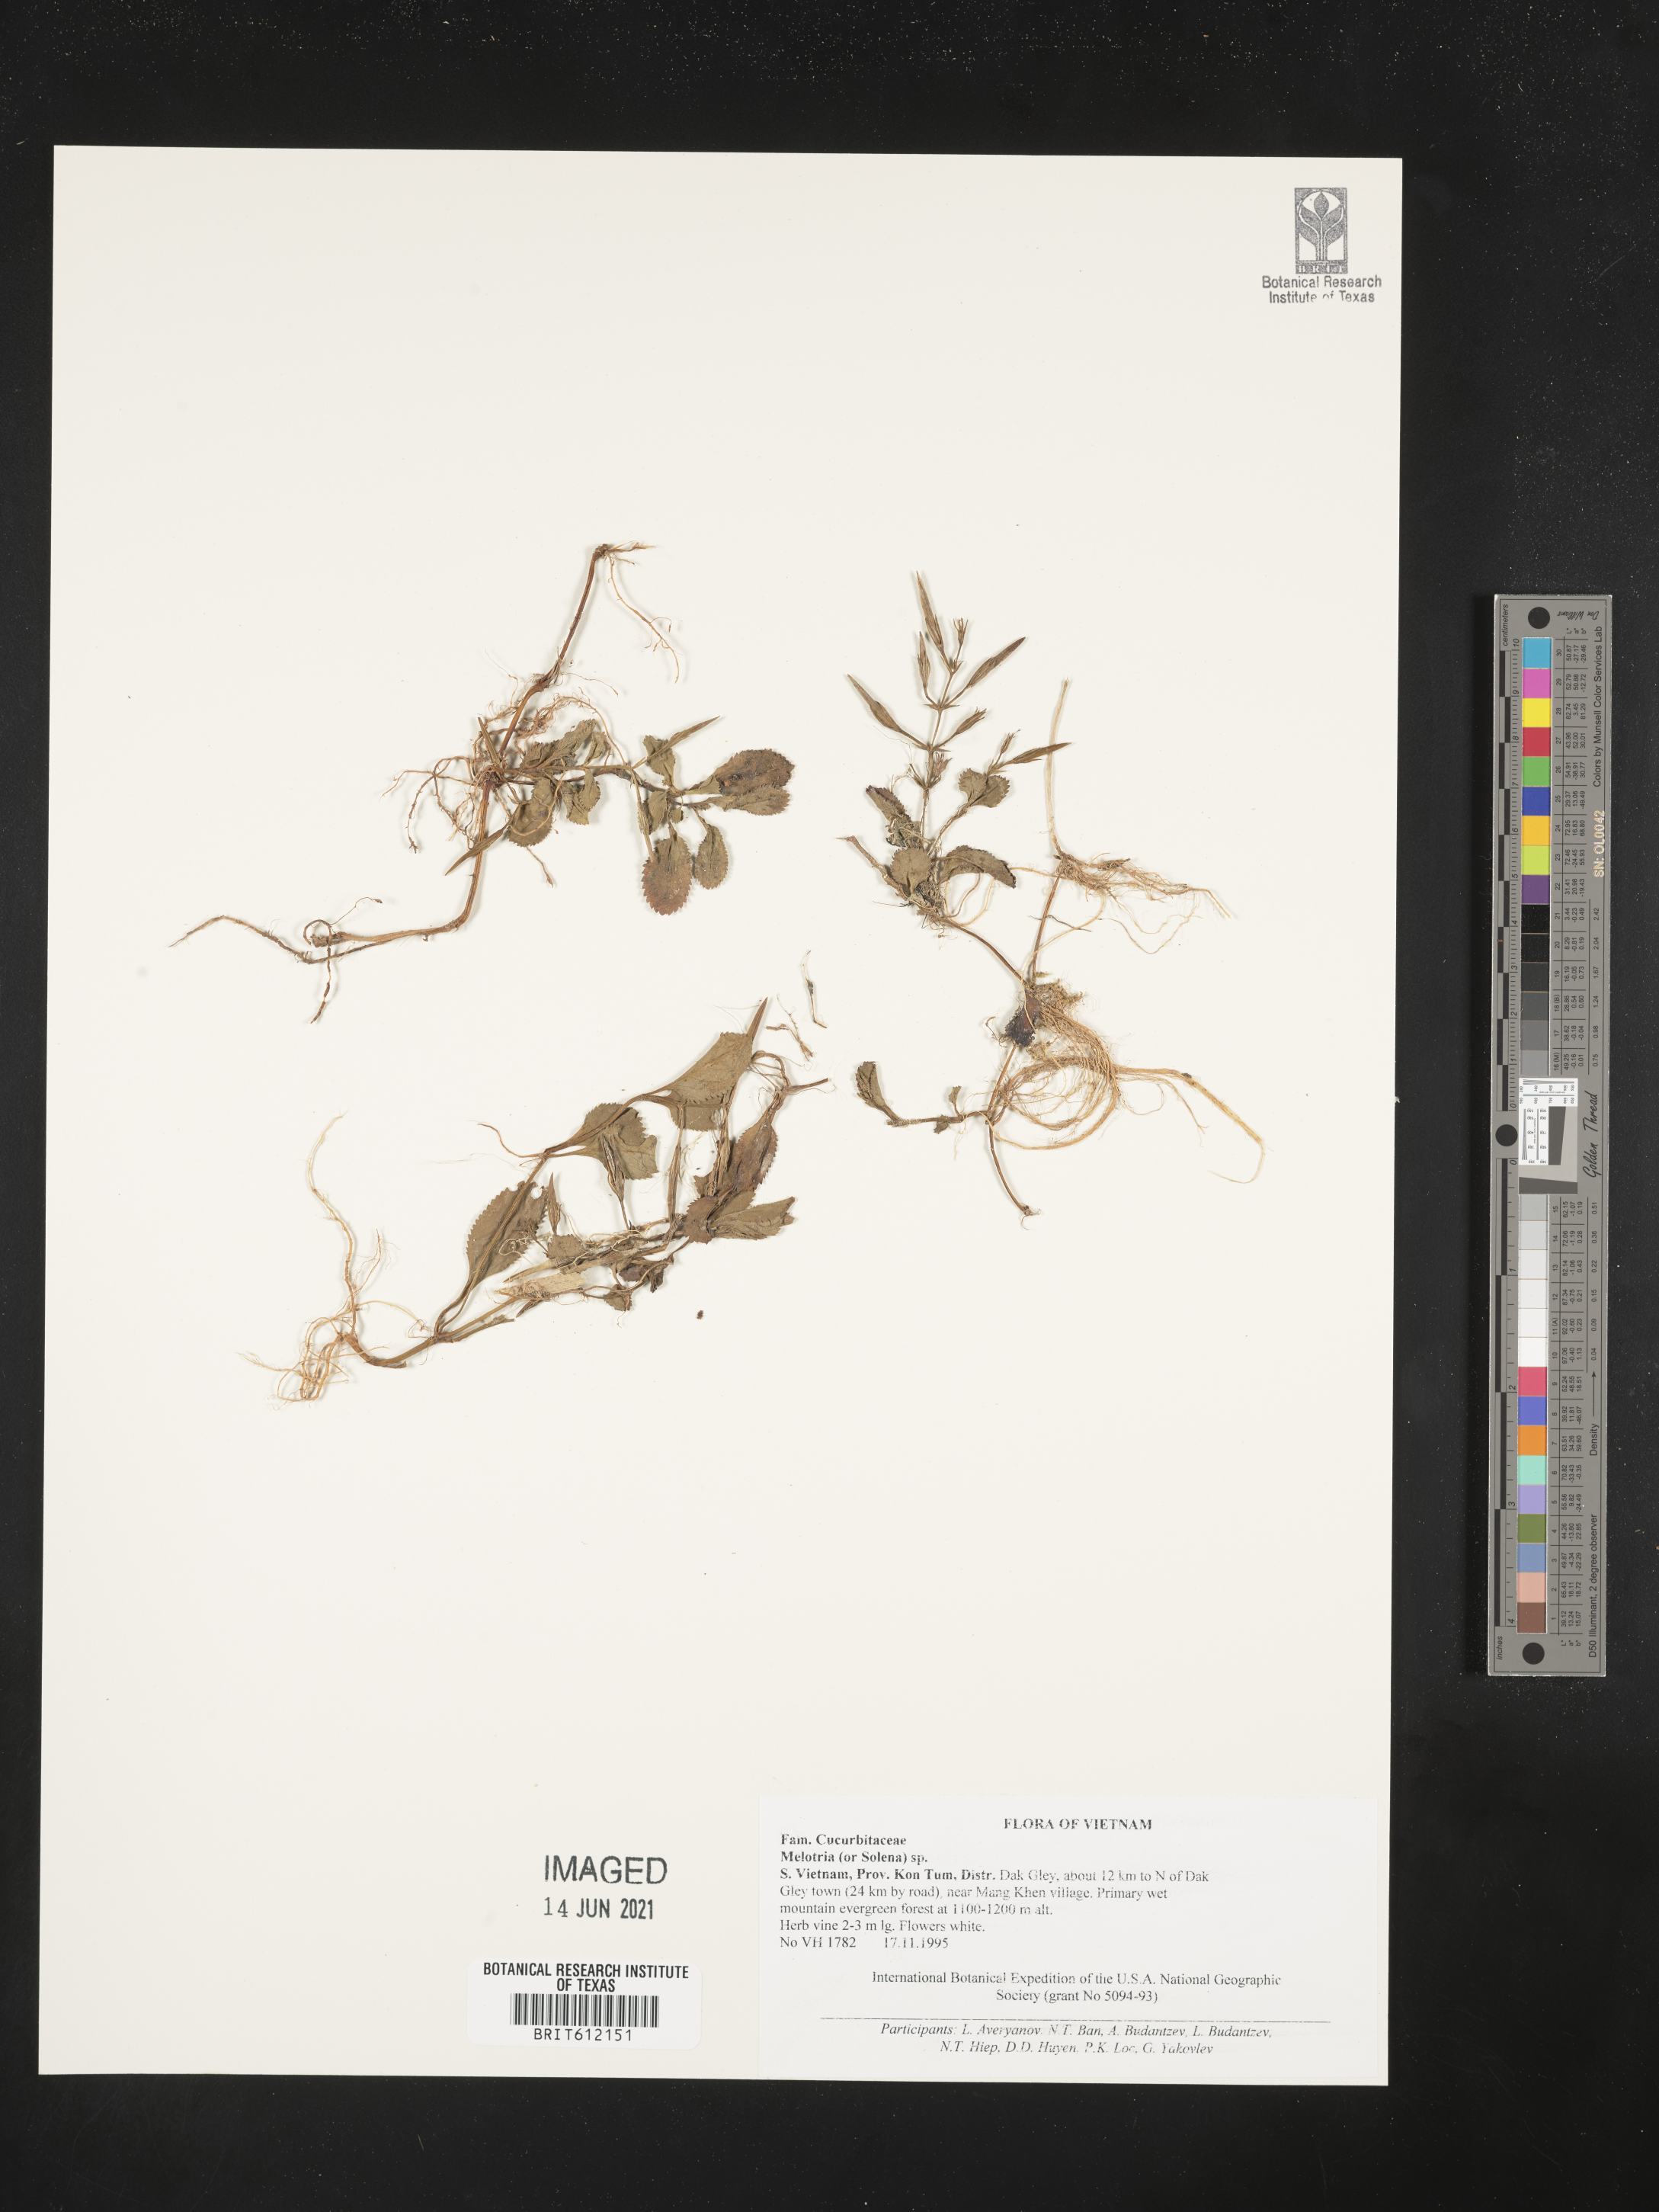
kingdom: Plantae
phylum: Tracheophyta
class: Magnoliopsida
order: Cucurbitales
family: Cucurbitaceae
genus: Melothria
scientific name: Melothria
